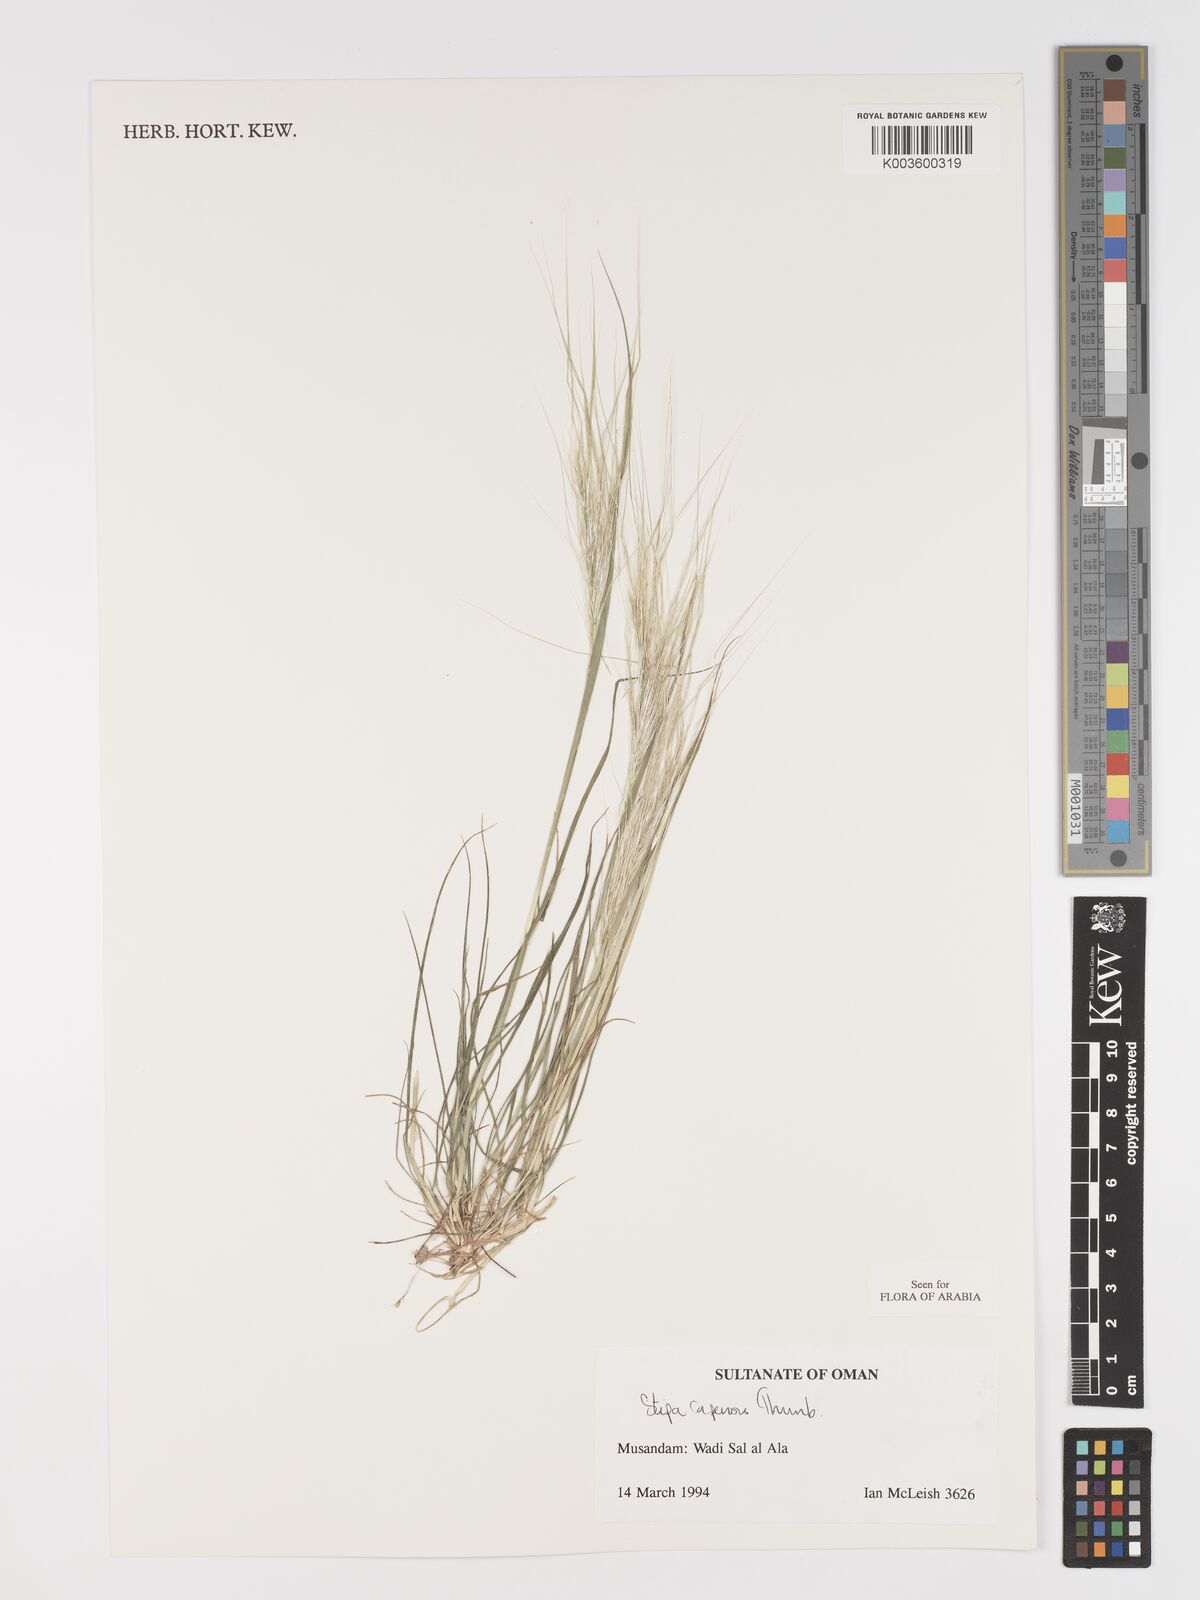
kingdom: Plantae
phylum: Tracheophyta
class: Liliopsida
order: Poales
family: Poaceae
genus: Stipellula
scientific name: Stipellula capensis
